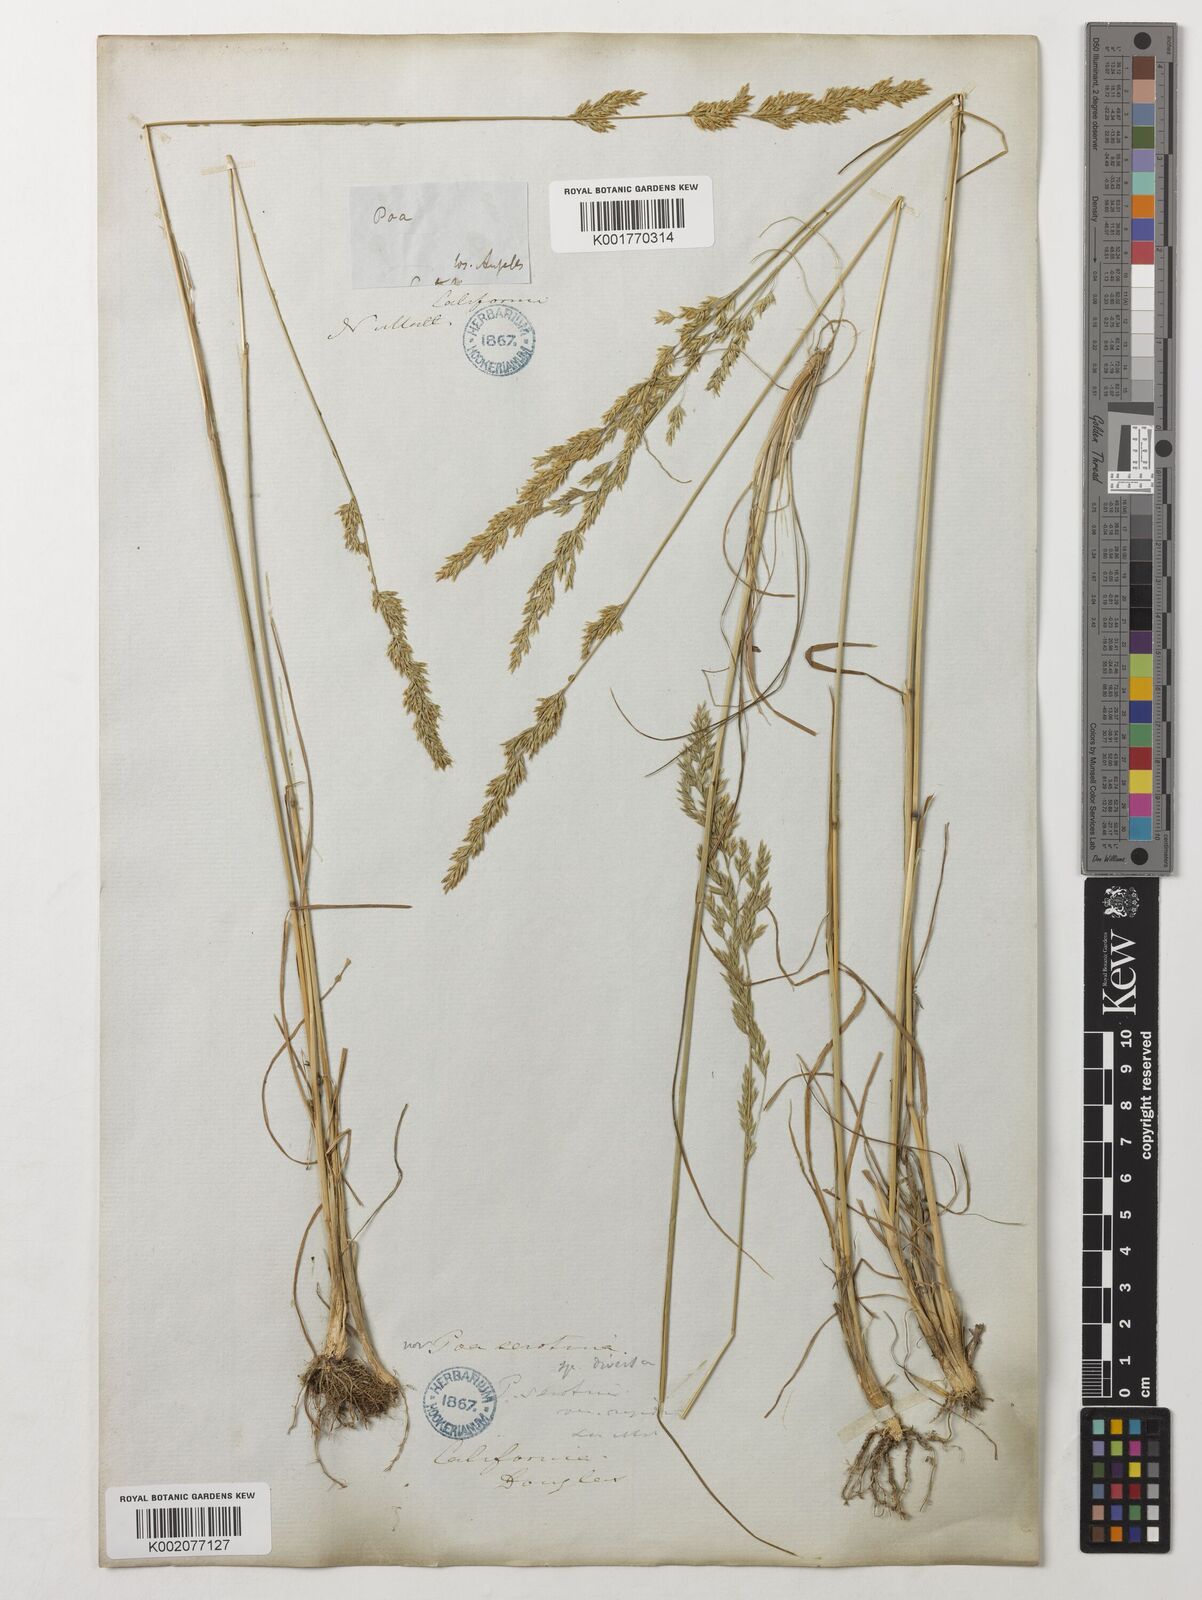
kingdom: Plantae
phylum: Tracheophyta
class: Liliopsida
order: Poales
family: Poaceae
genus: Poa
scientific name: Poa palustris
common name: Swamp meadow-grass
